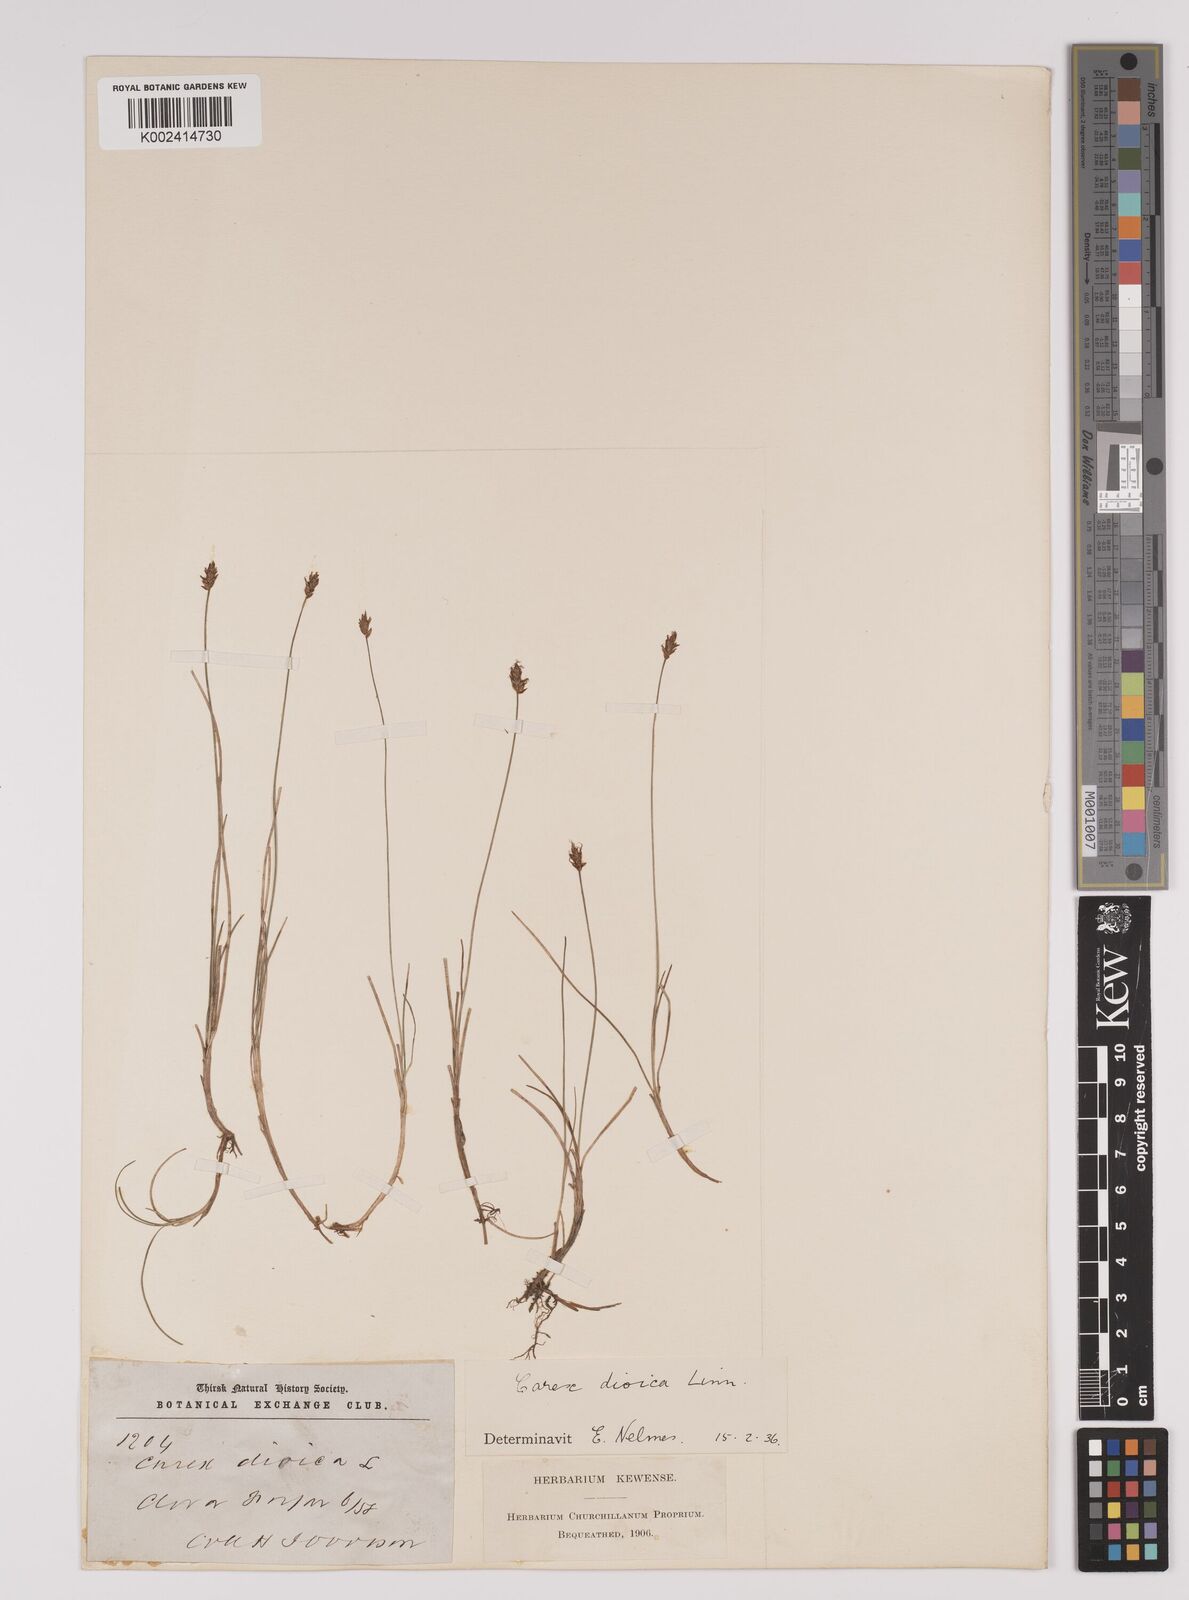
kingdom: Plantae
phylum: Tracheophyta
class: Liliopsida
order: Poales
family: Cyperaceae
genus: Carex
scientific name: Carex dioica
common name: Dioecious sedge
